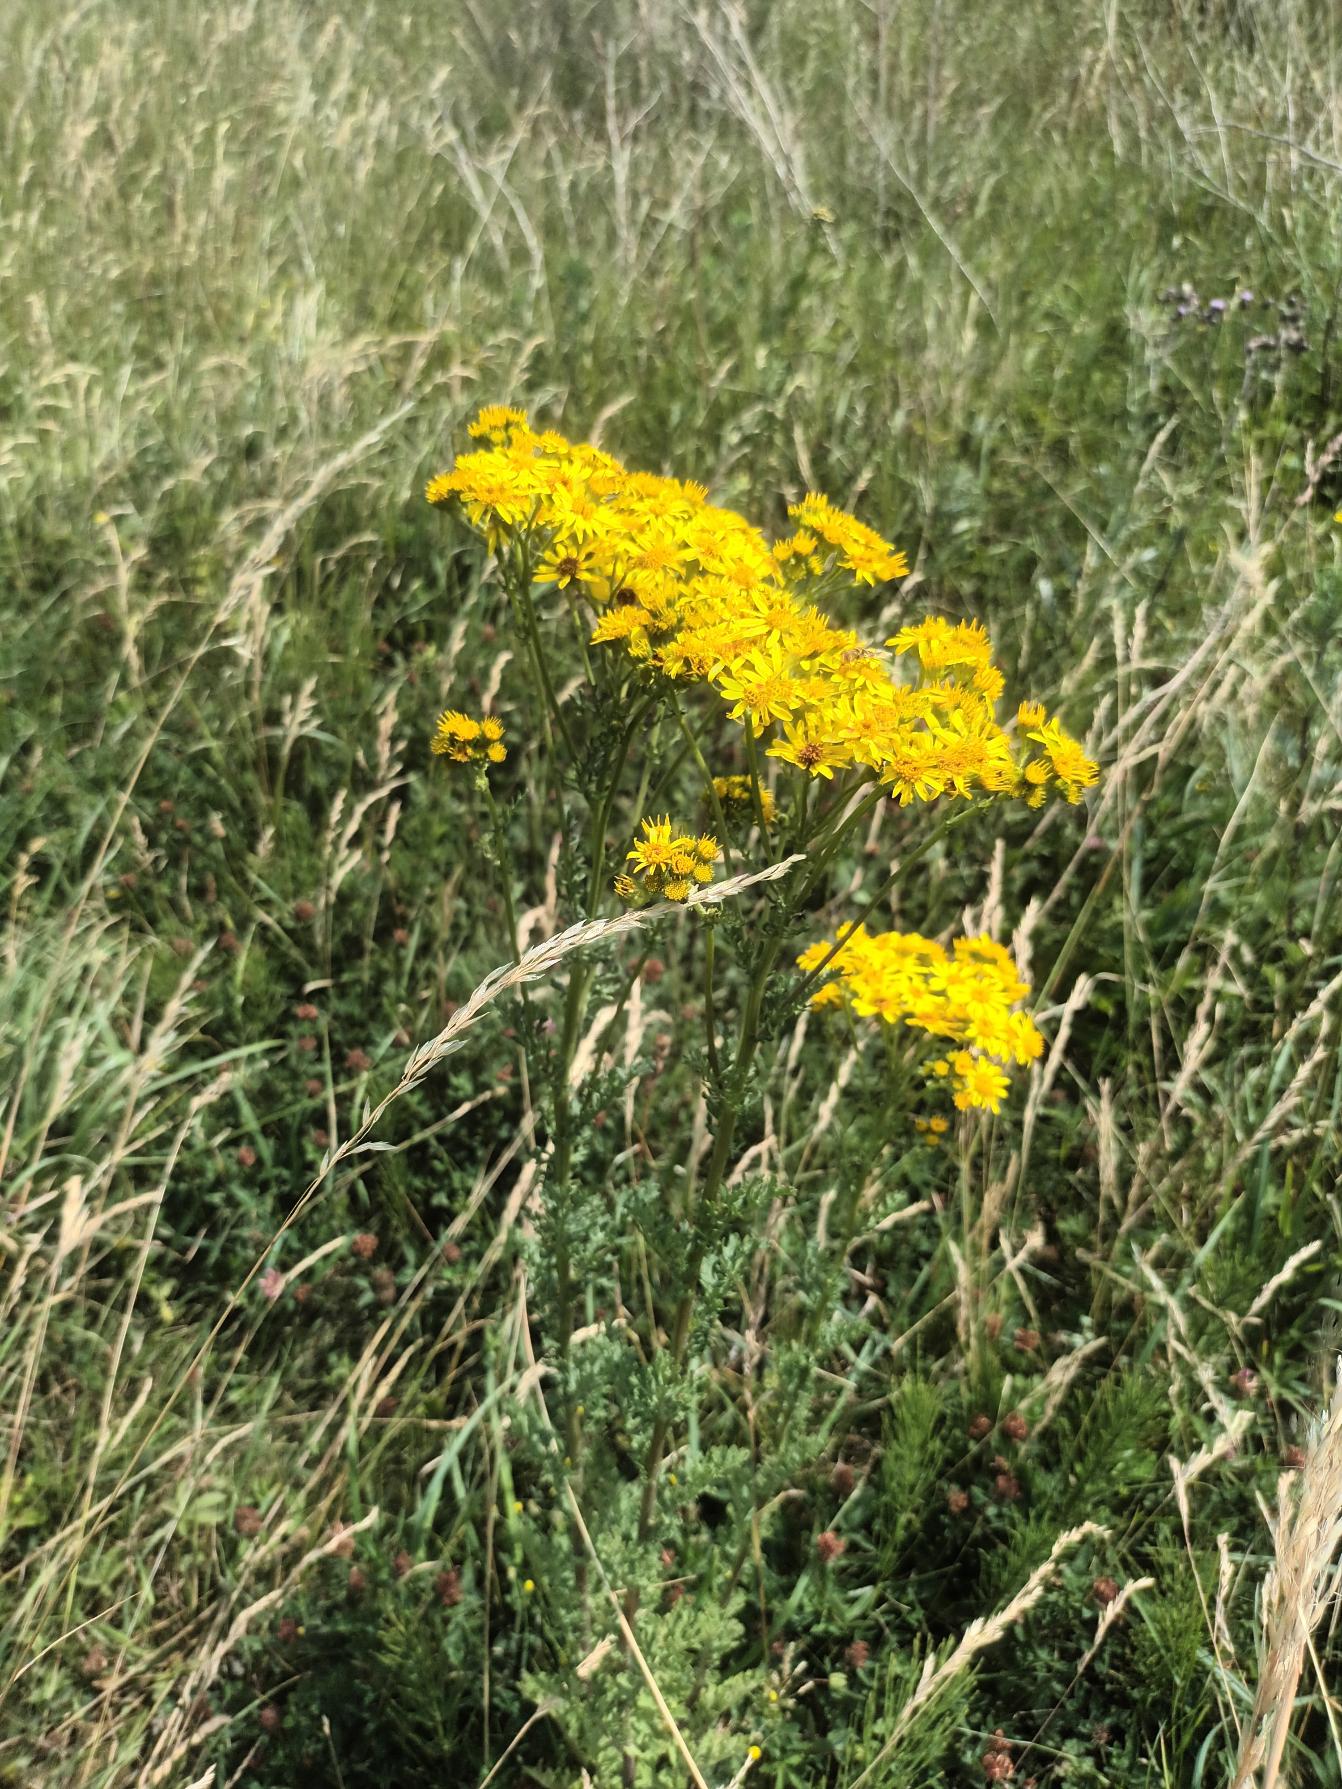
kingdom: Plantae
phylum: Tracheophyta
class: Magnoliopsida
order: Asterales
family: Asteraceae
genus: Jacobaea
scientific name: Jacobaea vulgaris
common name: Eng-brandbæger
